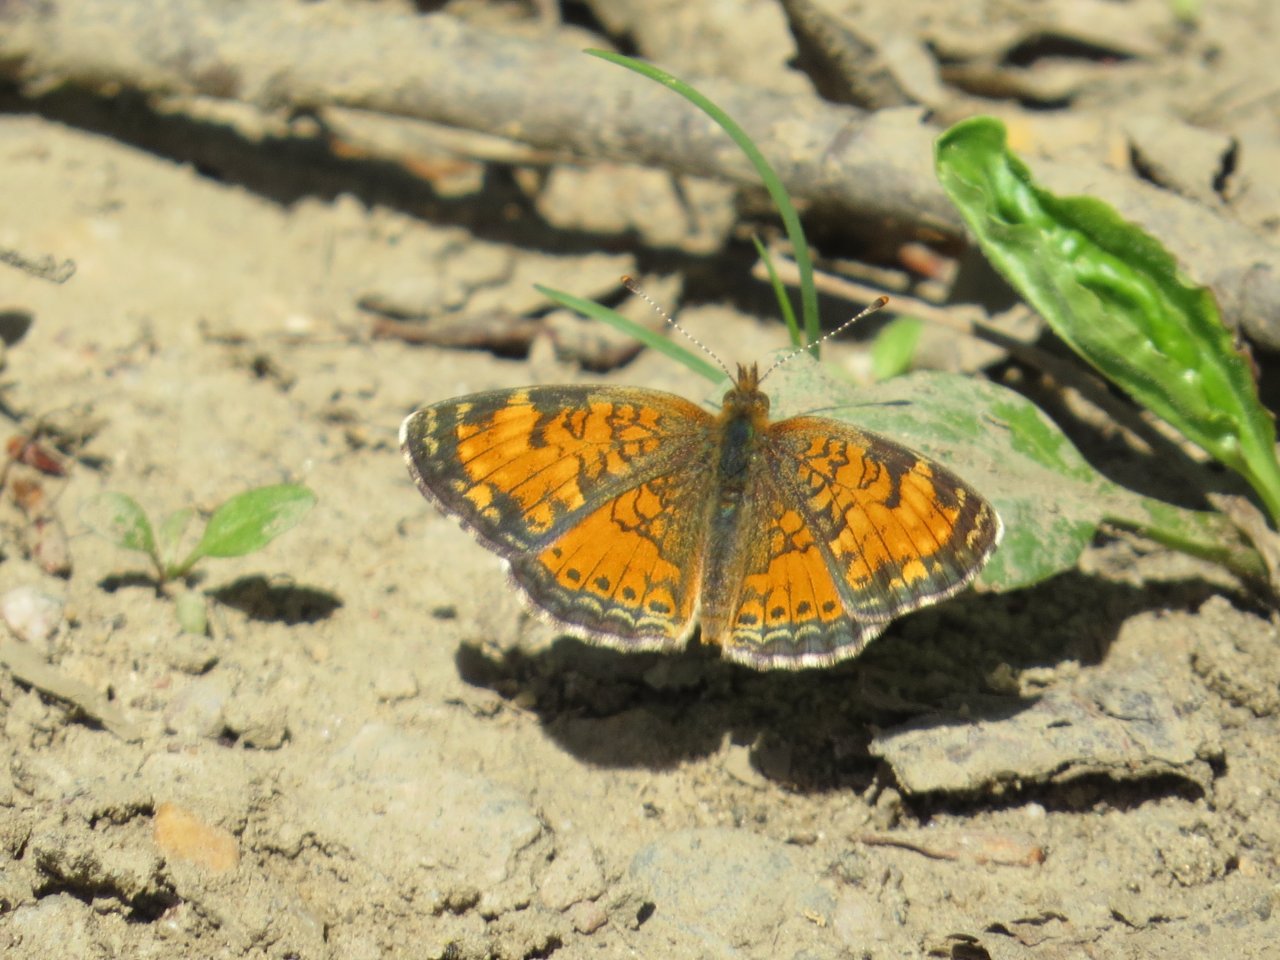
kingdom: Animalia
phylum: Arthropoda
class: Insecta
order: Lepidoptera
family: Nymphalidae
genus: Phyciodes
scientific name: Phyciodes tharos
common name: Northern Crescent
